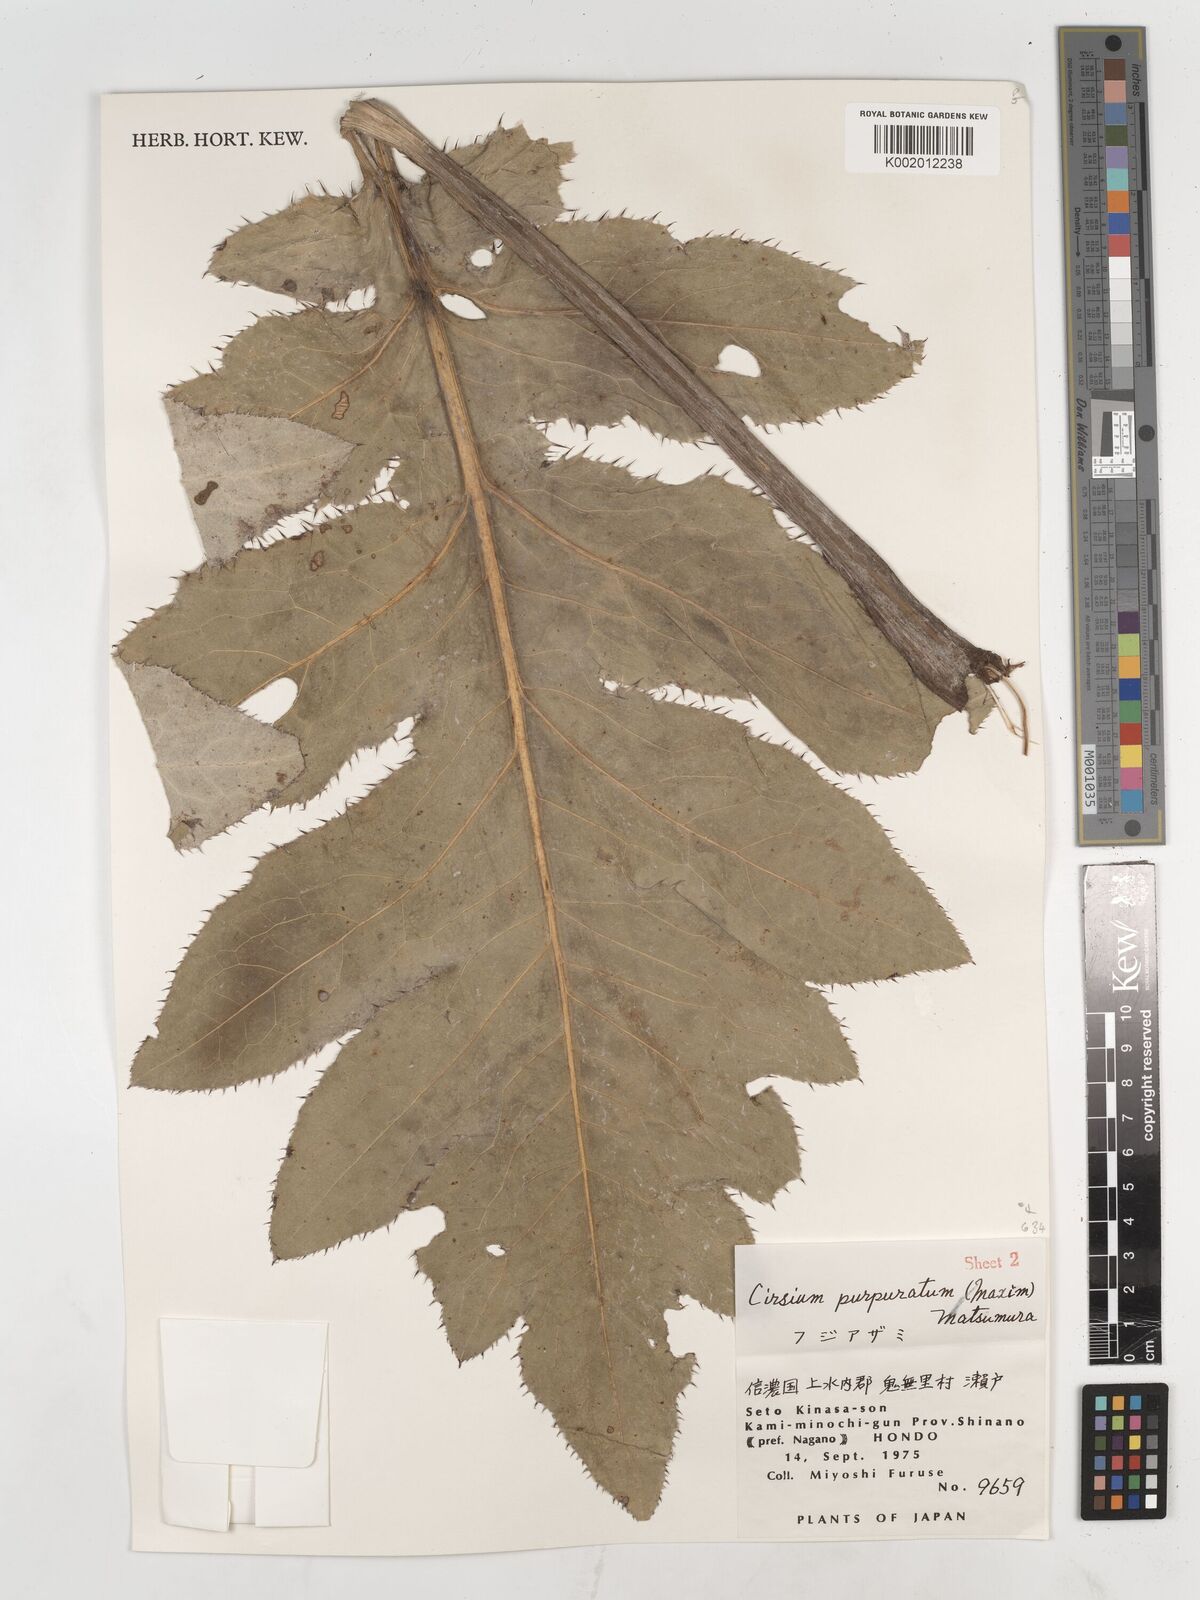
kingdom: Plantae
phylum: Tracheophyta
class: Magnoliopsida
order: Asterales
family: Asteraceae
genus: Cirsium
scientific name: Cirsium purpuratum
